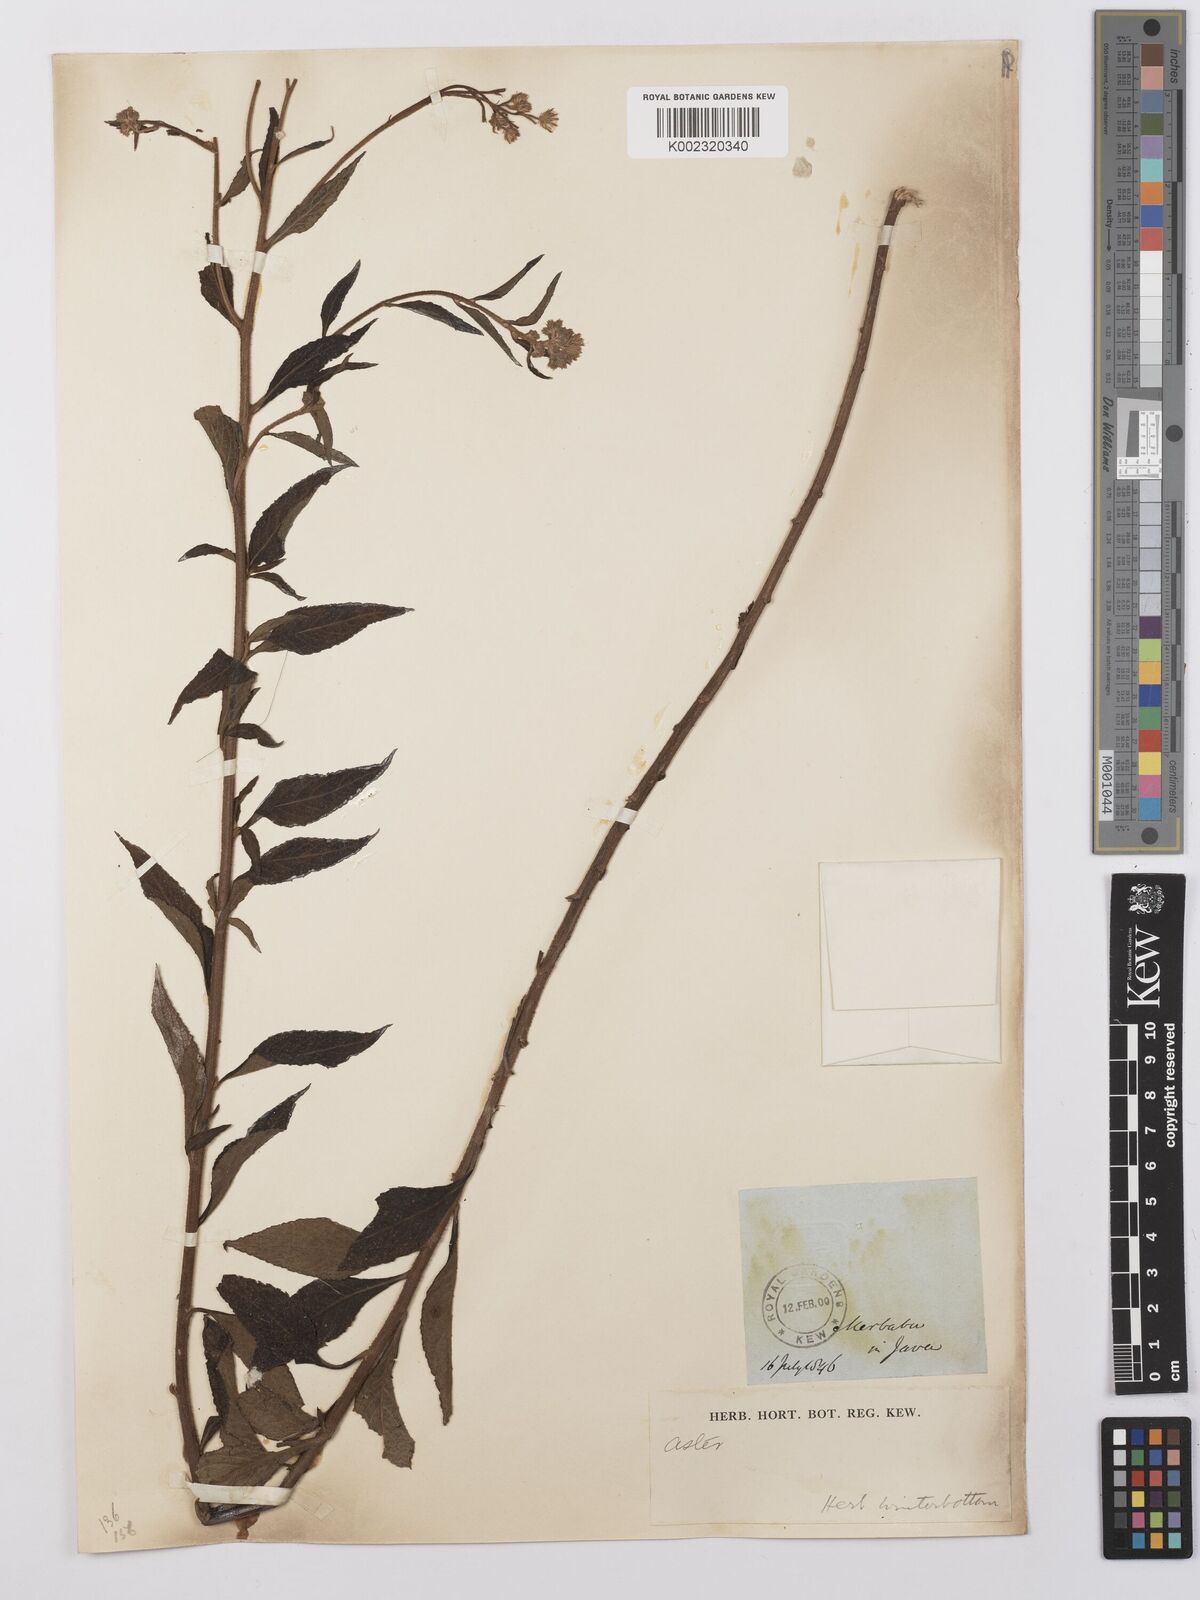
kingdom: Plantae
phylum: Tracheophyta
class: Magnoliopsida
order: Asterales
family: Asteraceae
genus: Conyza
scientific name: Conyza
